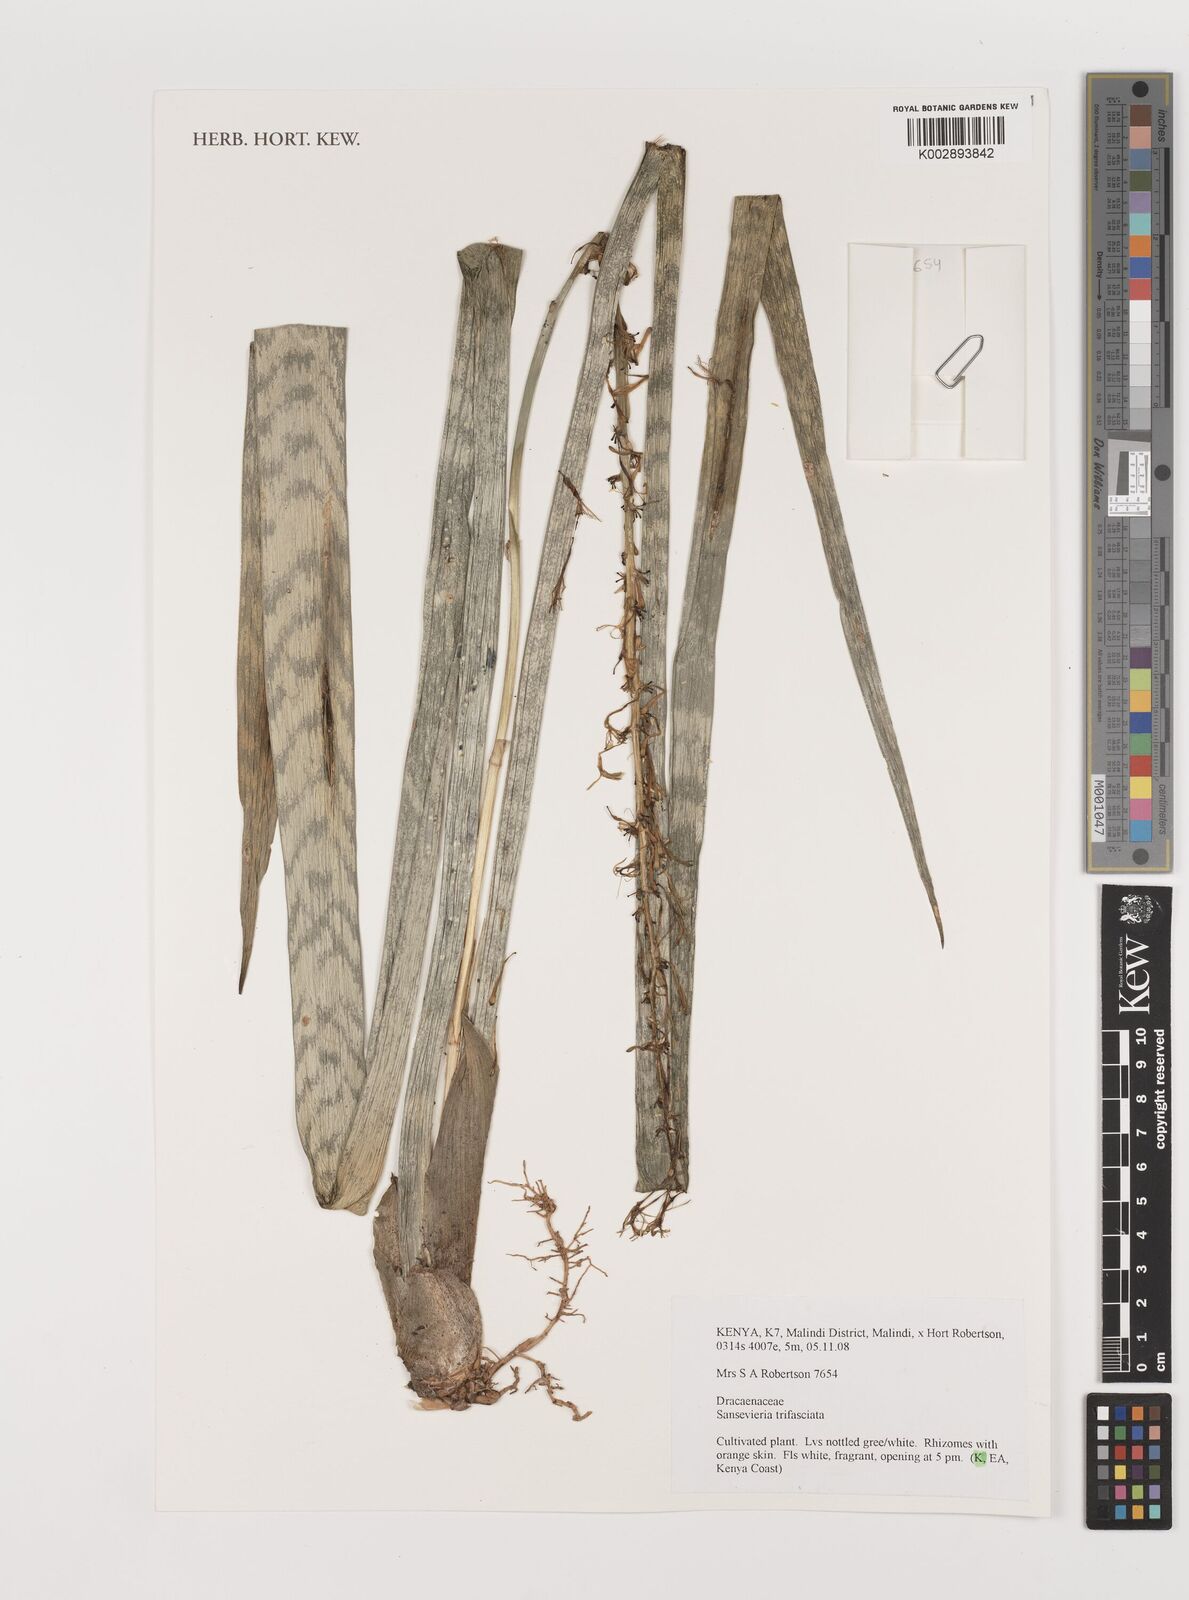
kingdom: Plantae
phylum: Tracheophyta
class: Liliopsida
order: Asparagales
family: Asparagaceae
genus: Dracaena
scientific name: Dracaena trifasciata
